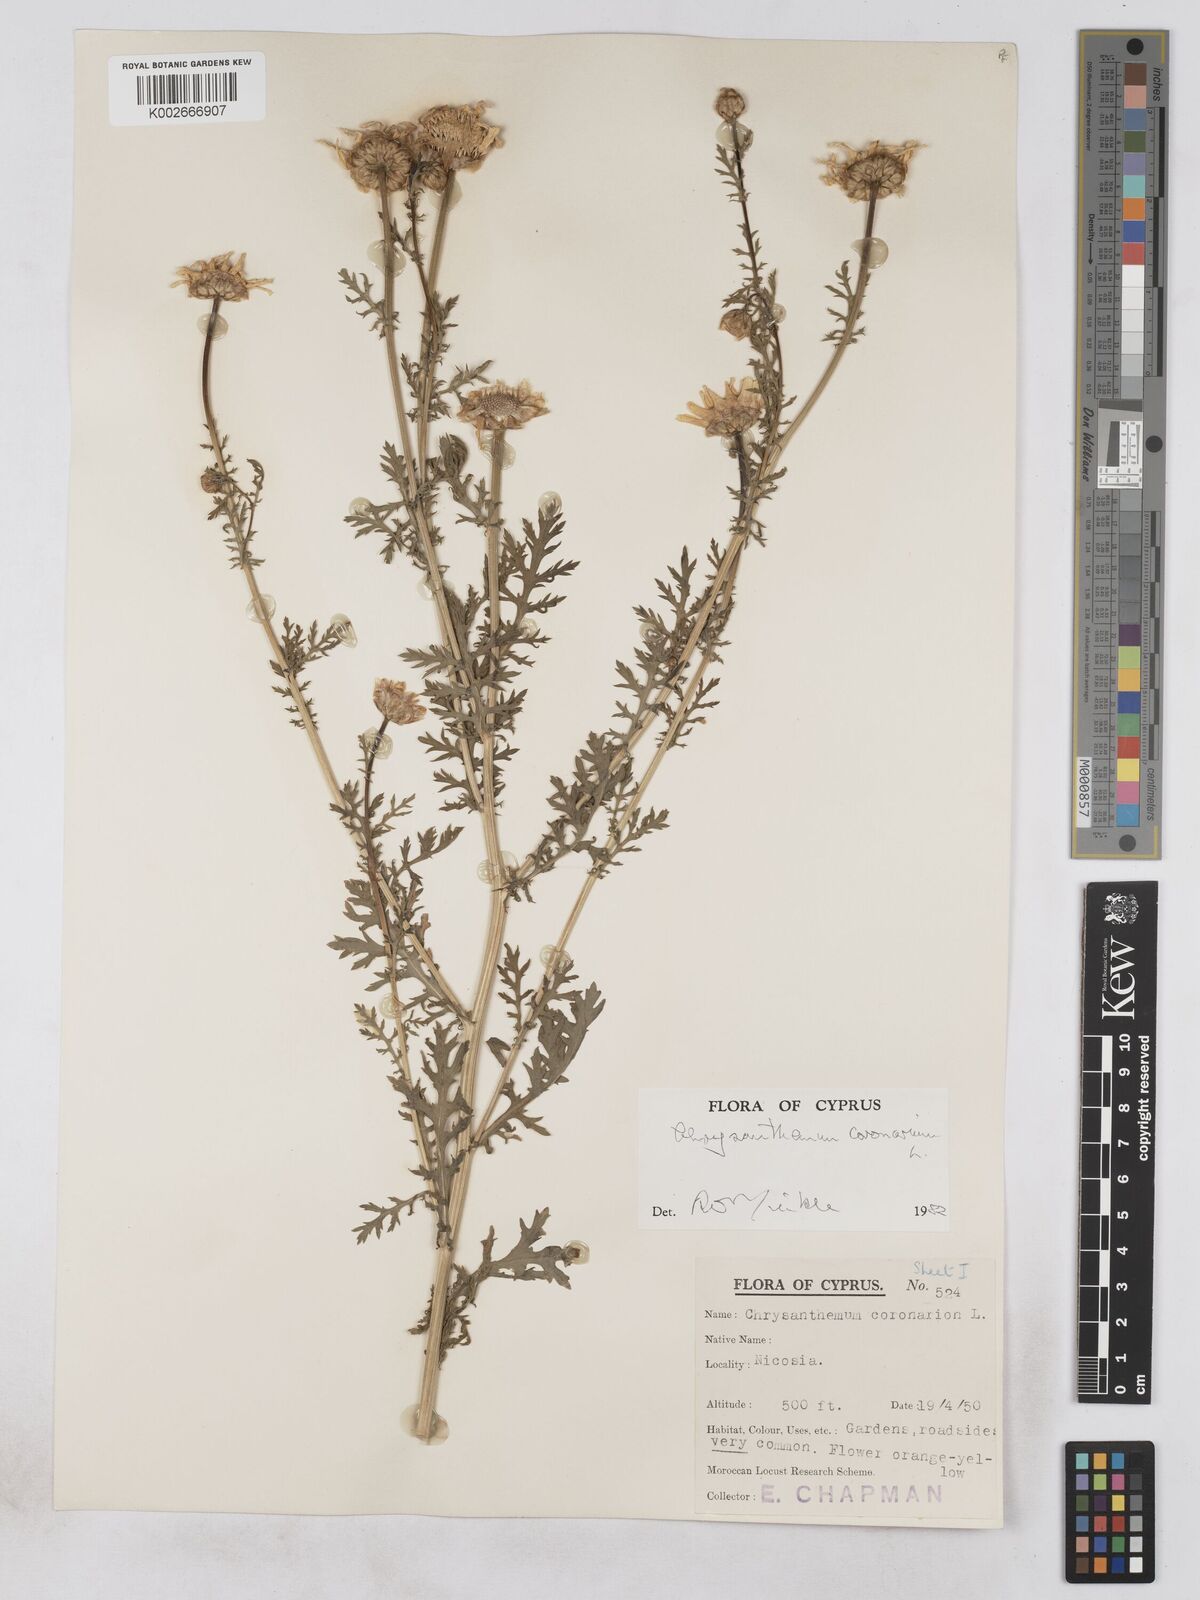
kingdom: Plantae
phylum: Tracheophyta
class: Magnoliopsida
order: Asterales
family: Asteraceae
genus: Glebionis
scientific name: Glebionis coronaria
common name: Crowndaisy
